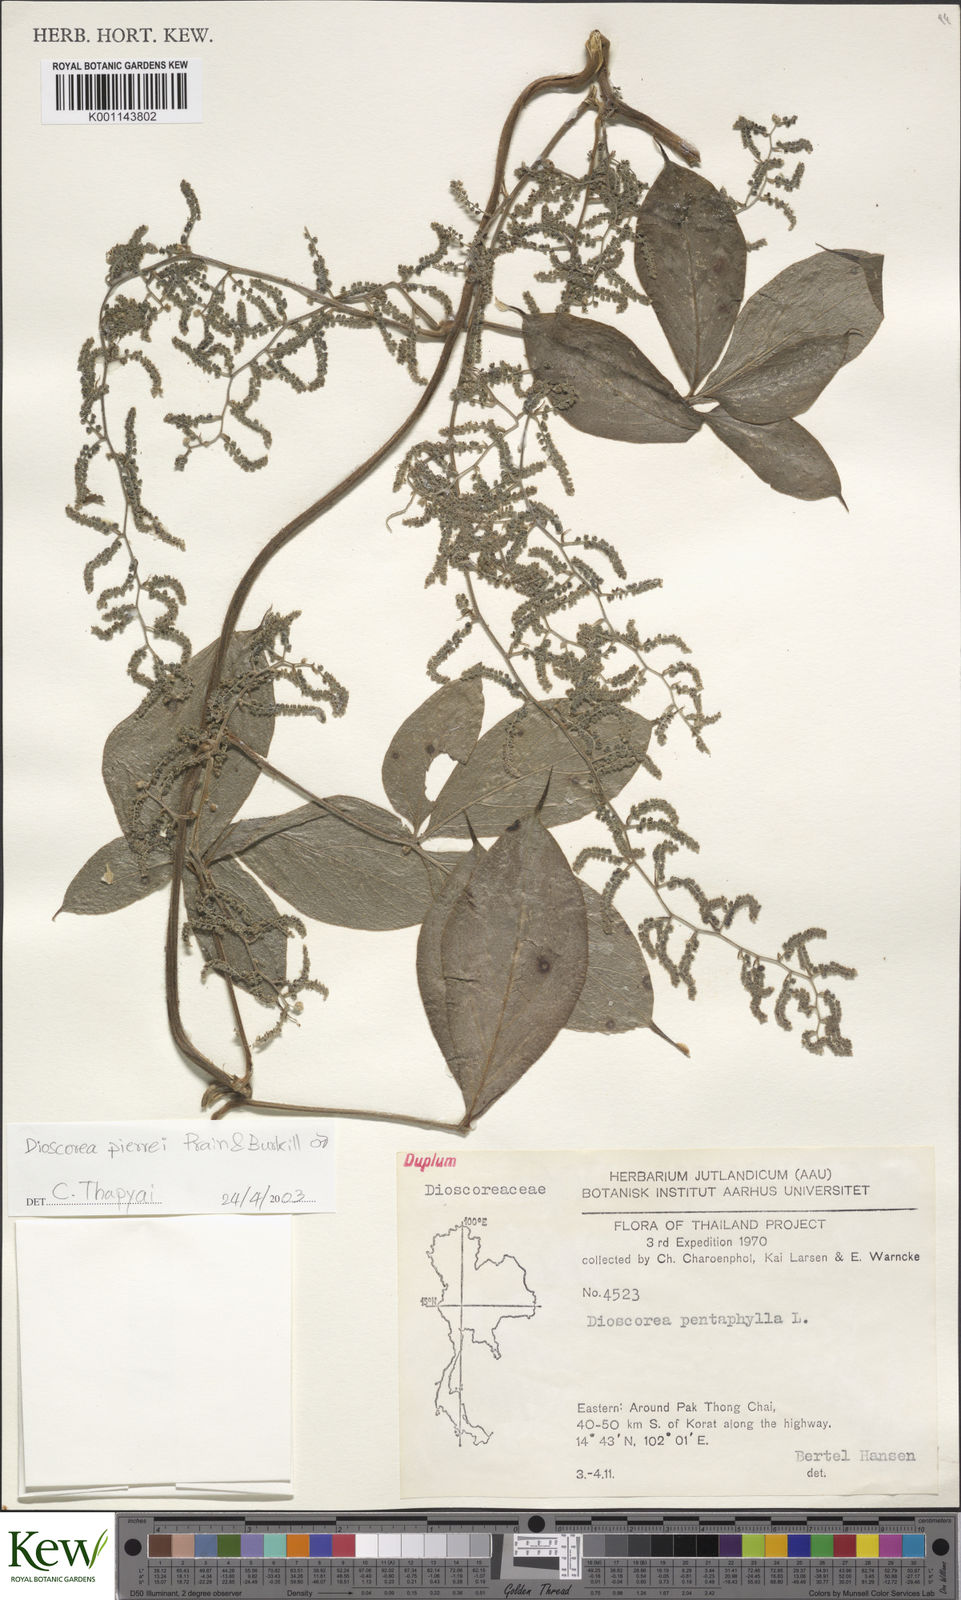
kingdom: Plantae
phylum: Tracheophyta
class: Liliopsida
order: Dioscoreales
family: Dioscoreaceae
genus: Dioscorea
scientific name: Dioscorea pierrei
